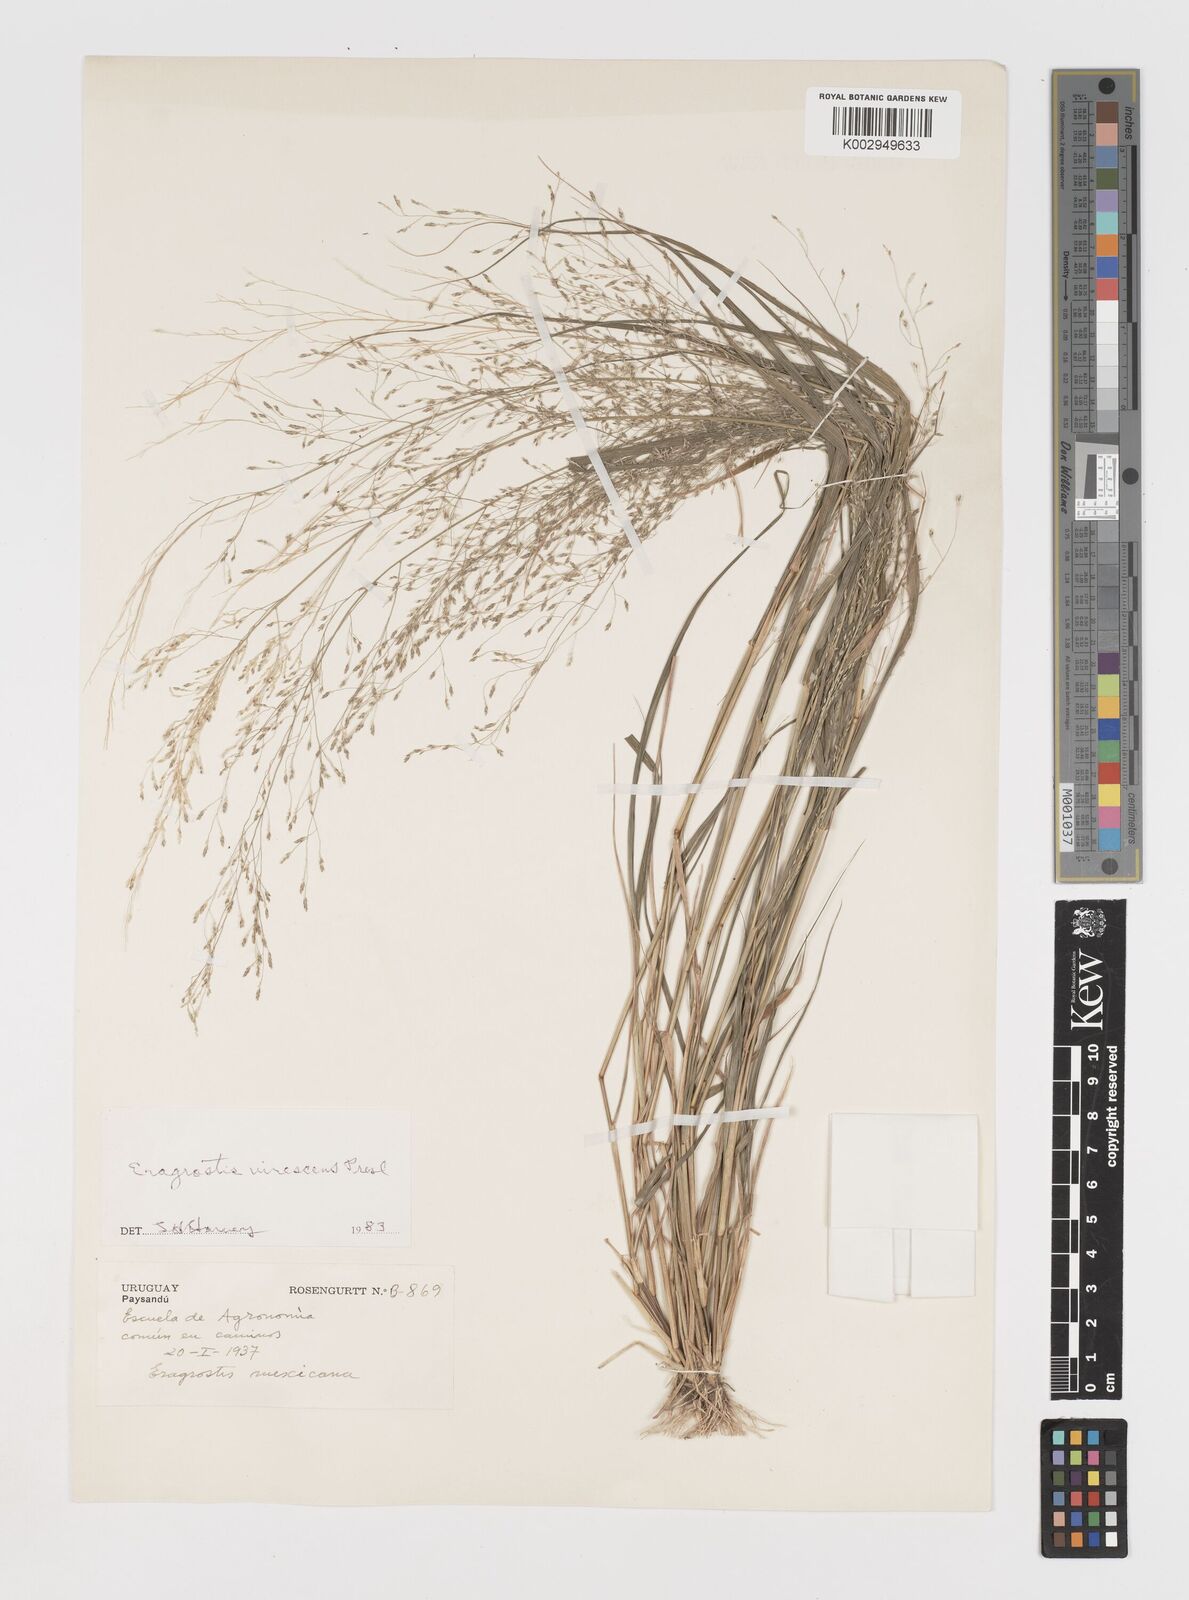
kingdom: Plantae
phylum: Tracheophyta
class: Liliopsida
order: Poales
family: Poaceae
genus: Eragrostis
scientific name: Eragrostis pilosa
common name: Indian lovegrass
